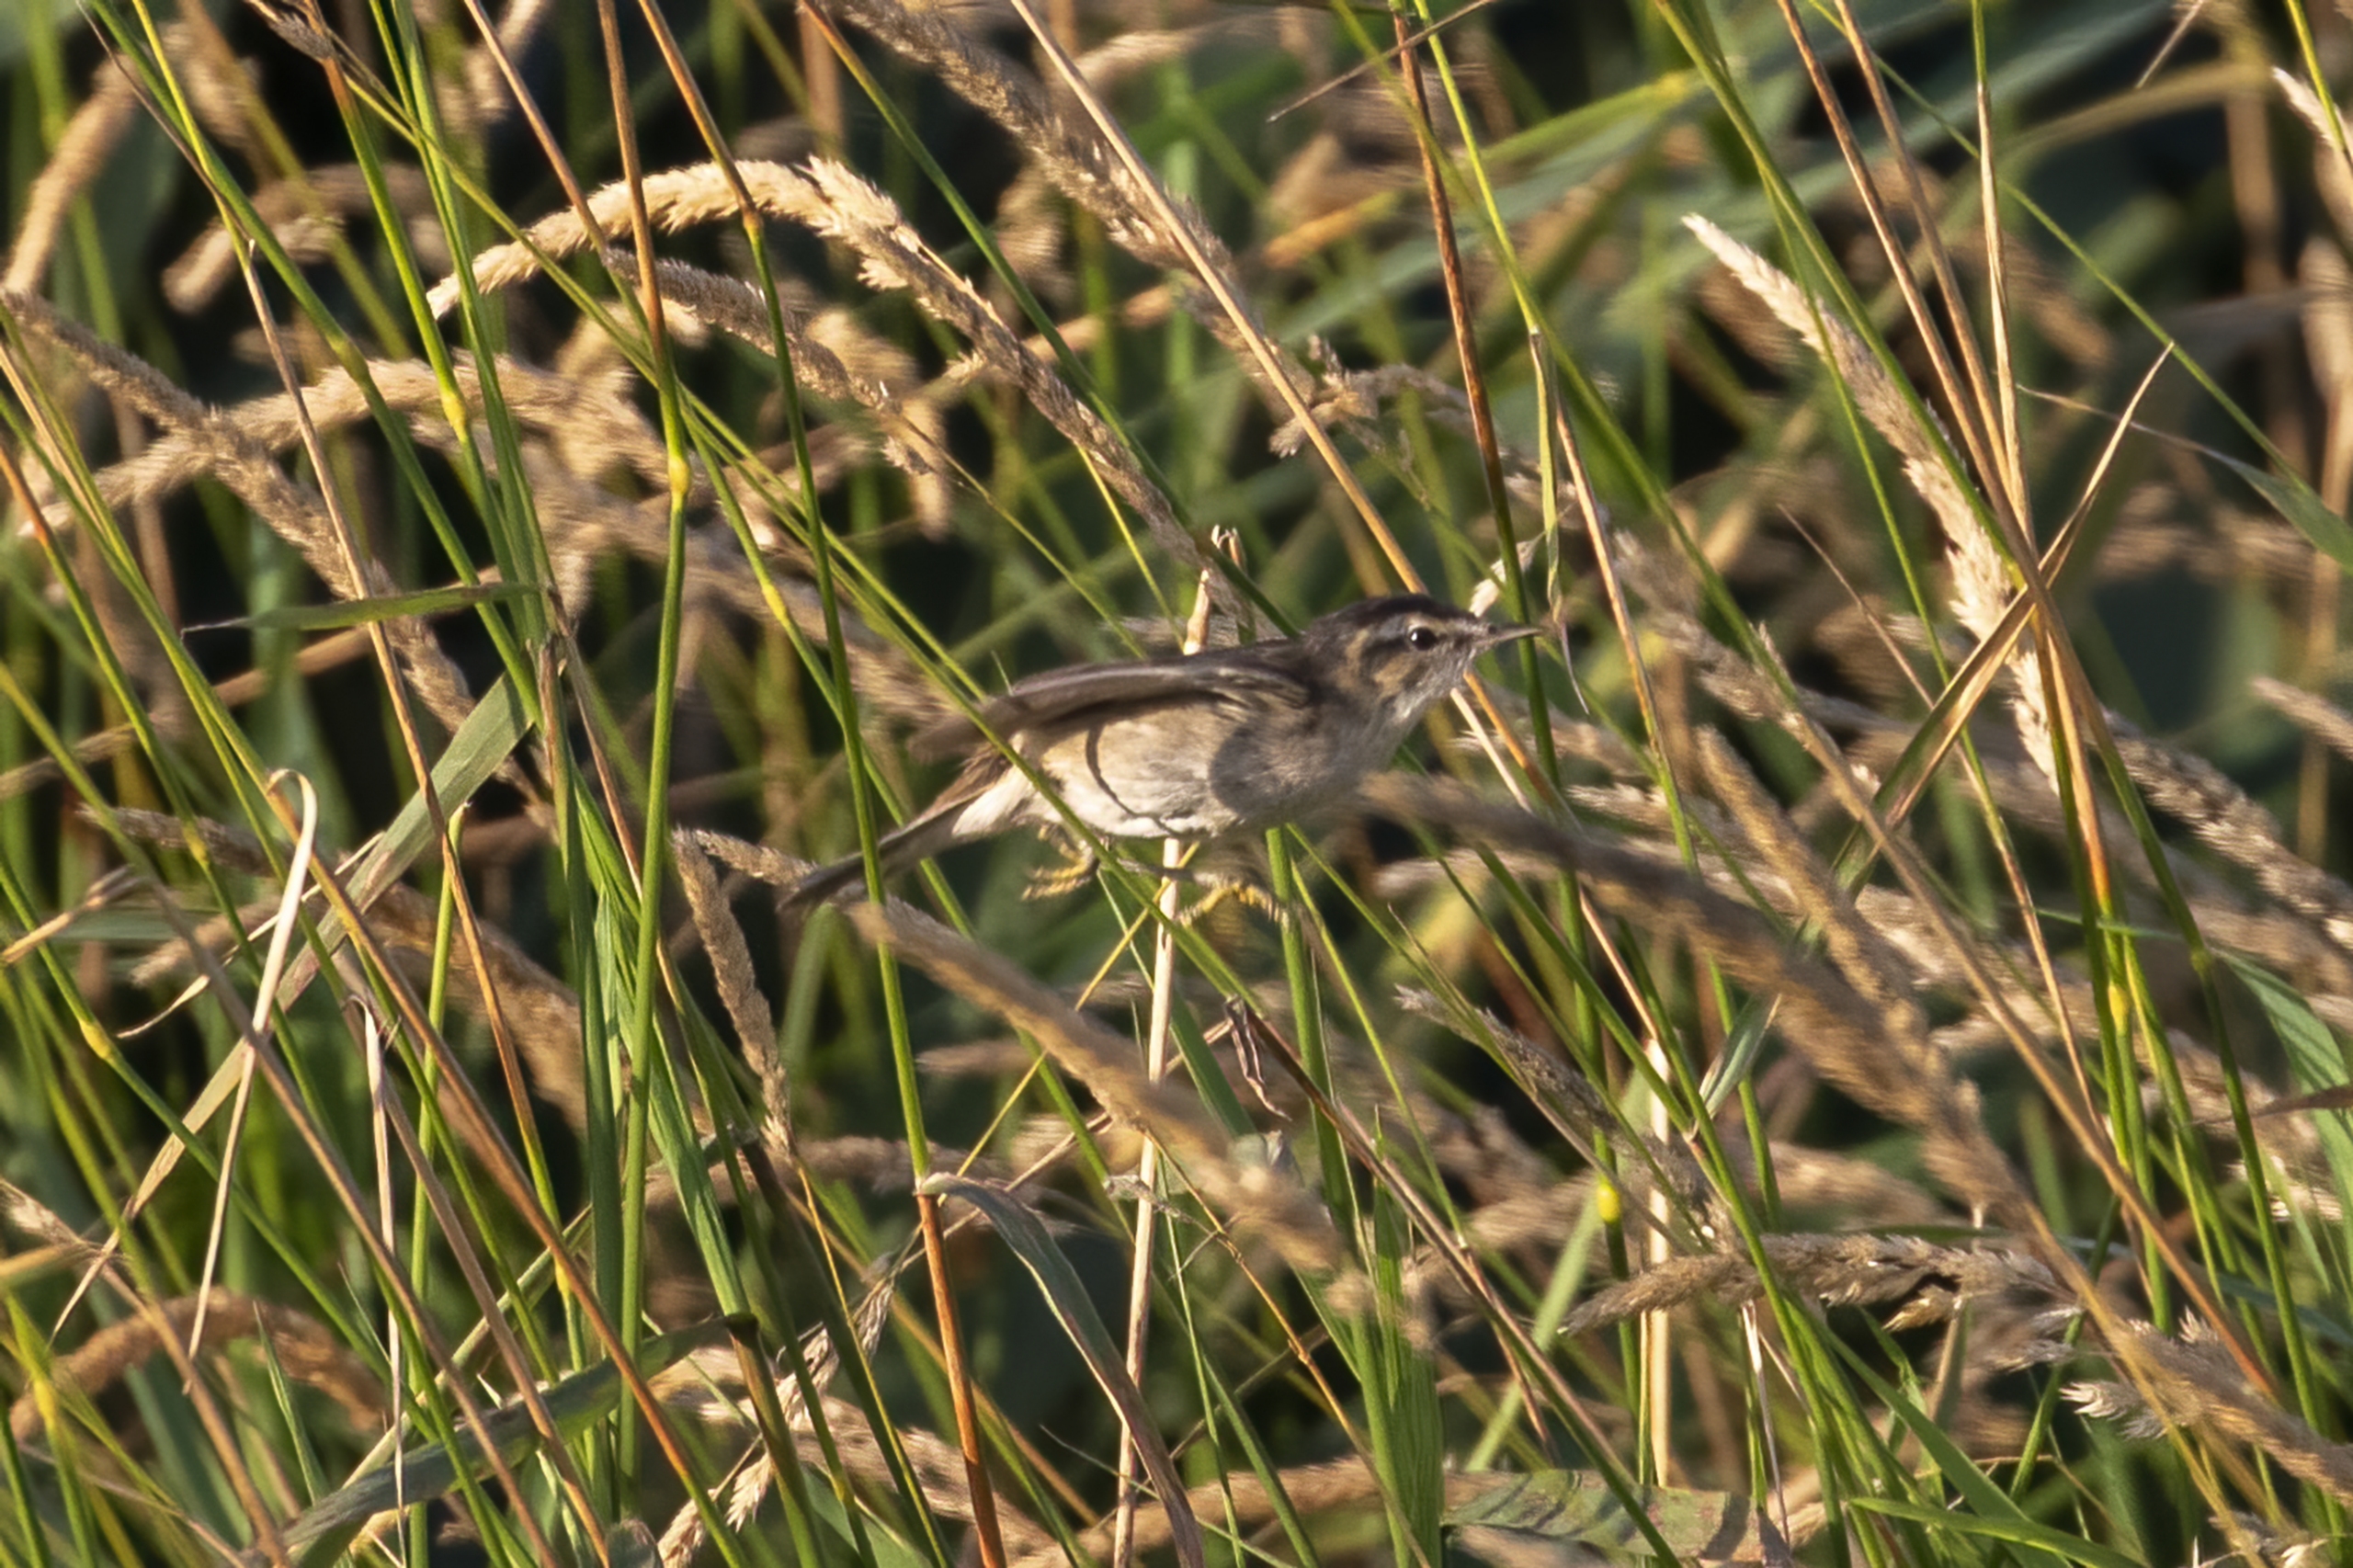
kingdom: Animalia
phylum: Chordata
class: Aves
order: Passeriformes
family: Acrocephalidae
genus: Acrocephalus
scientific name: Acrocephalus schoenobaenus
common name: Sivsanger
